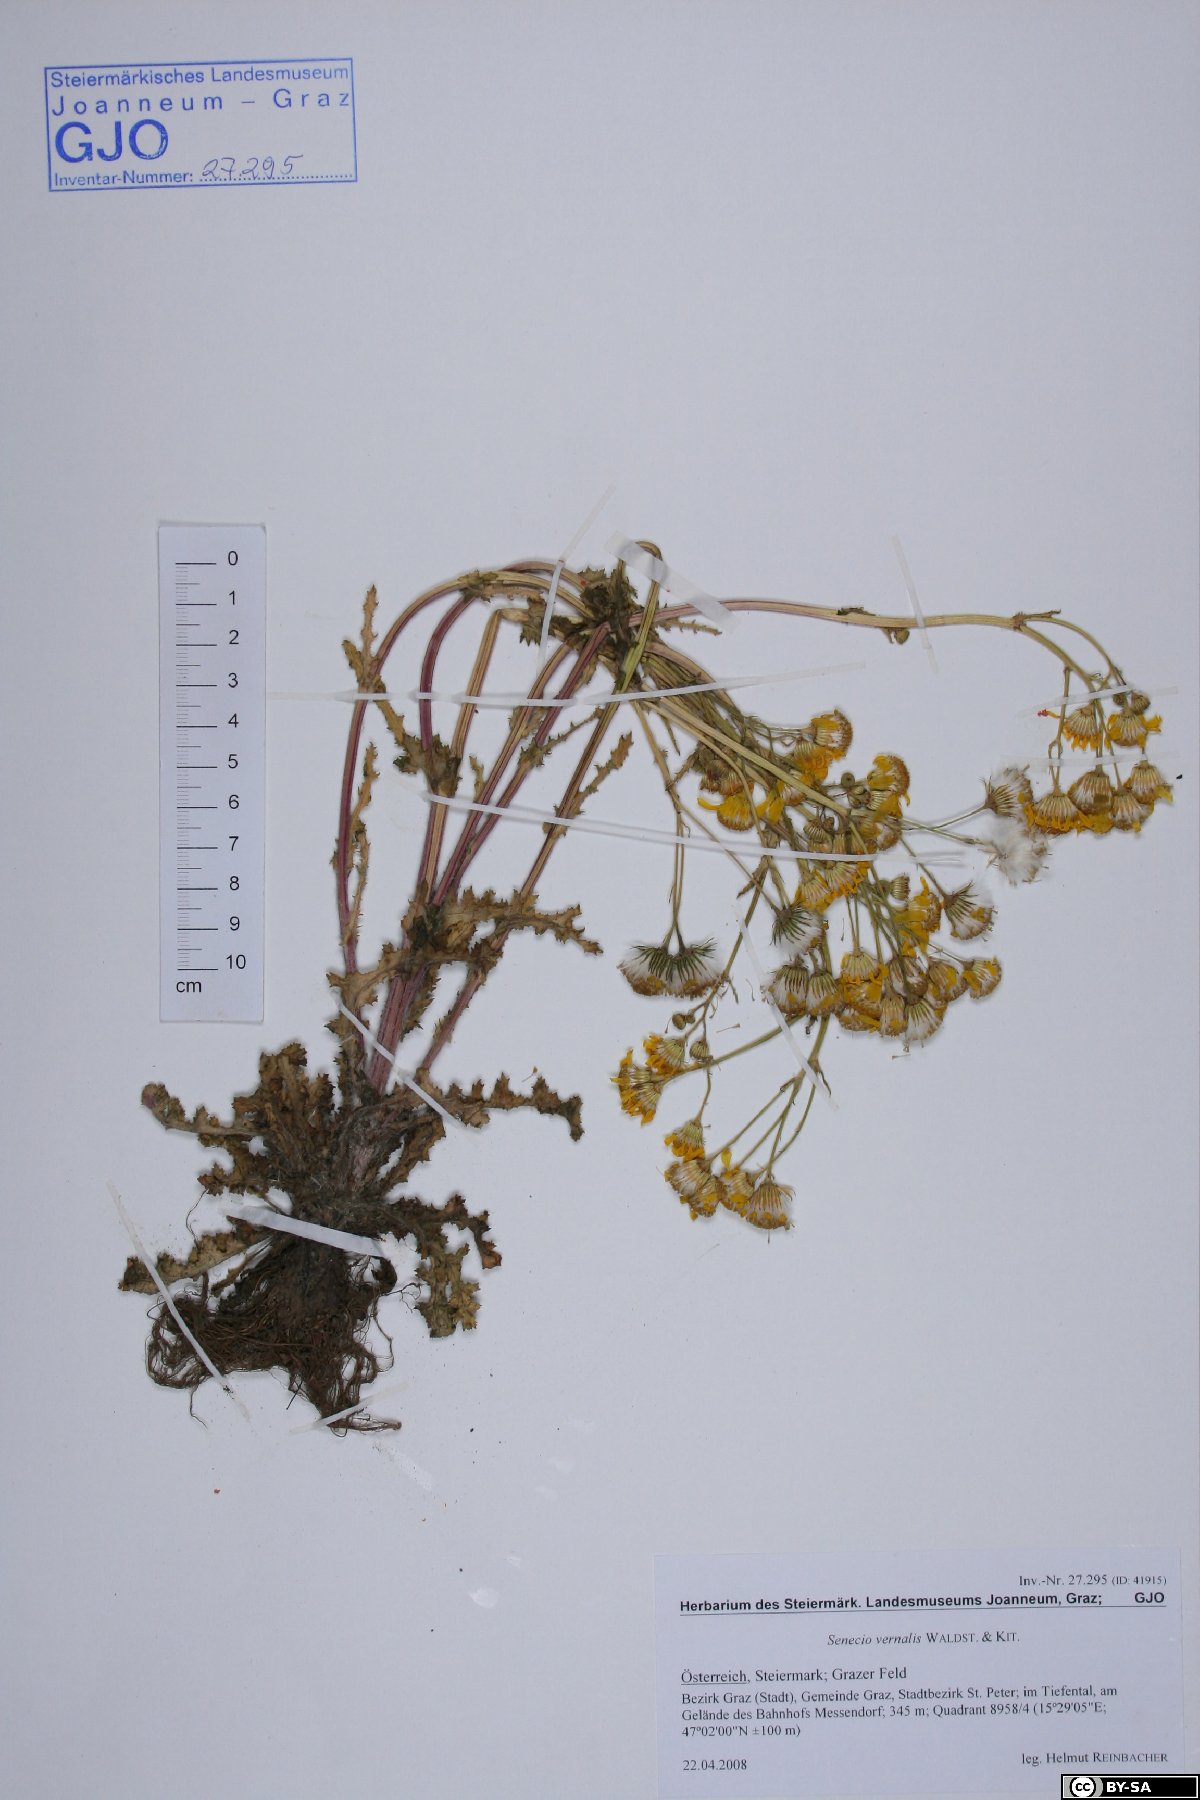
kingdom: Plantae
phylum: Tracheophyta
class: Magnoliopsida
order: Asterales
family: Asteraceae
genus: Senecio
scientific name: Senecio vernalis
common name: Eastern groundsel
